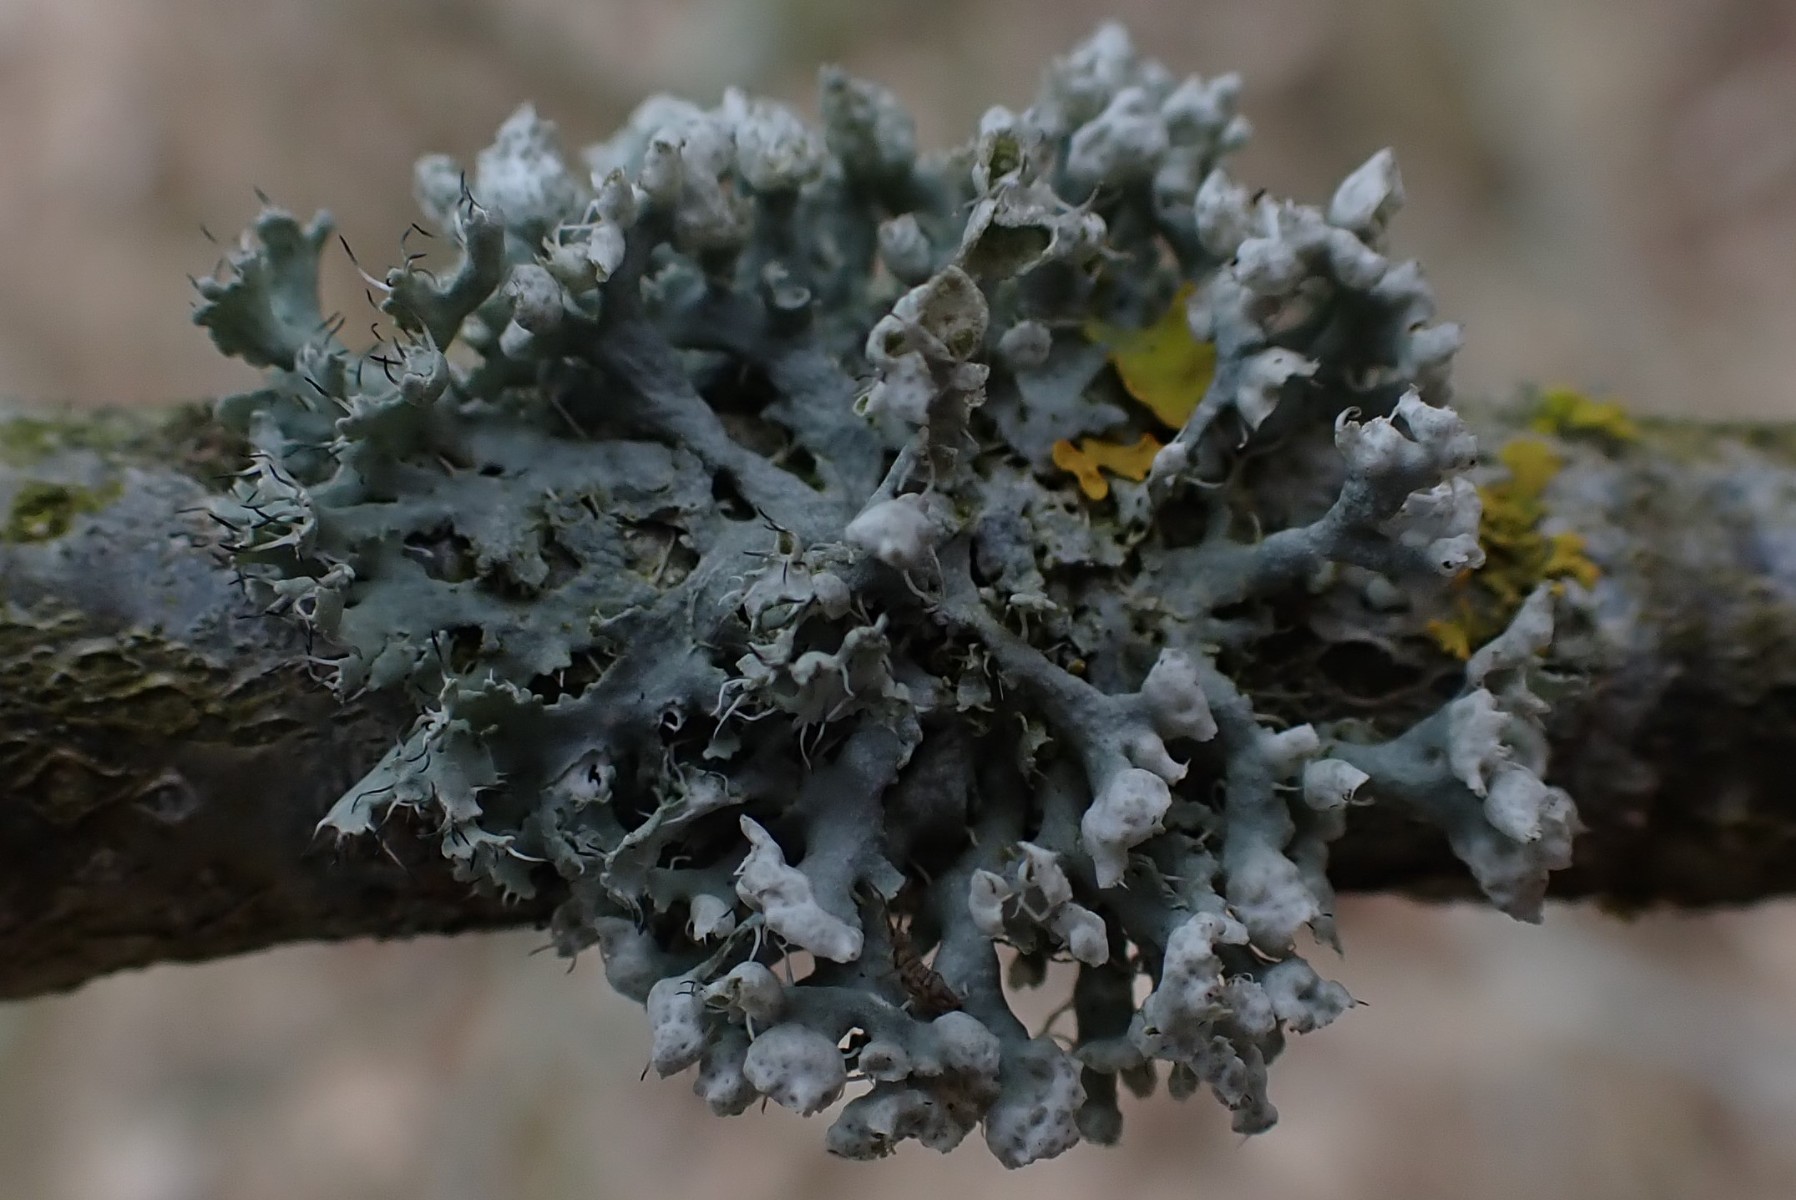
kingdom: Fungi
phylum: Ascomycota
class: Lecanoromycetes
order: Caliciales
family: Physciaceae
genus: Physcia
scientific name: Physcia adscendens
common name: hætte-rosetlav
